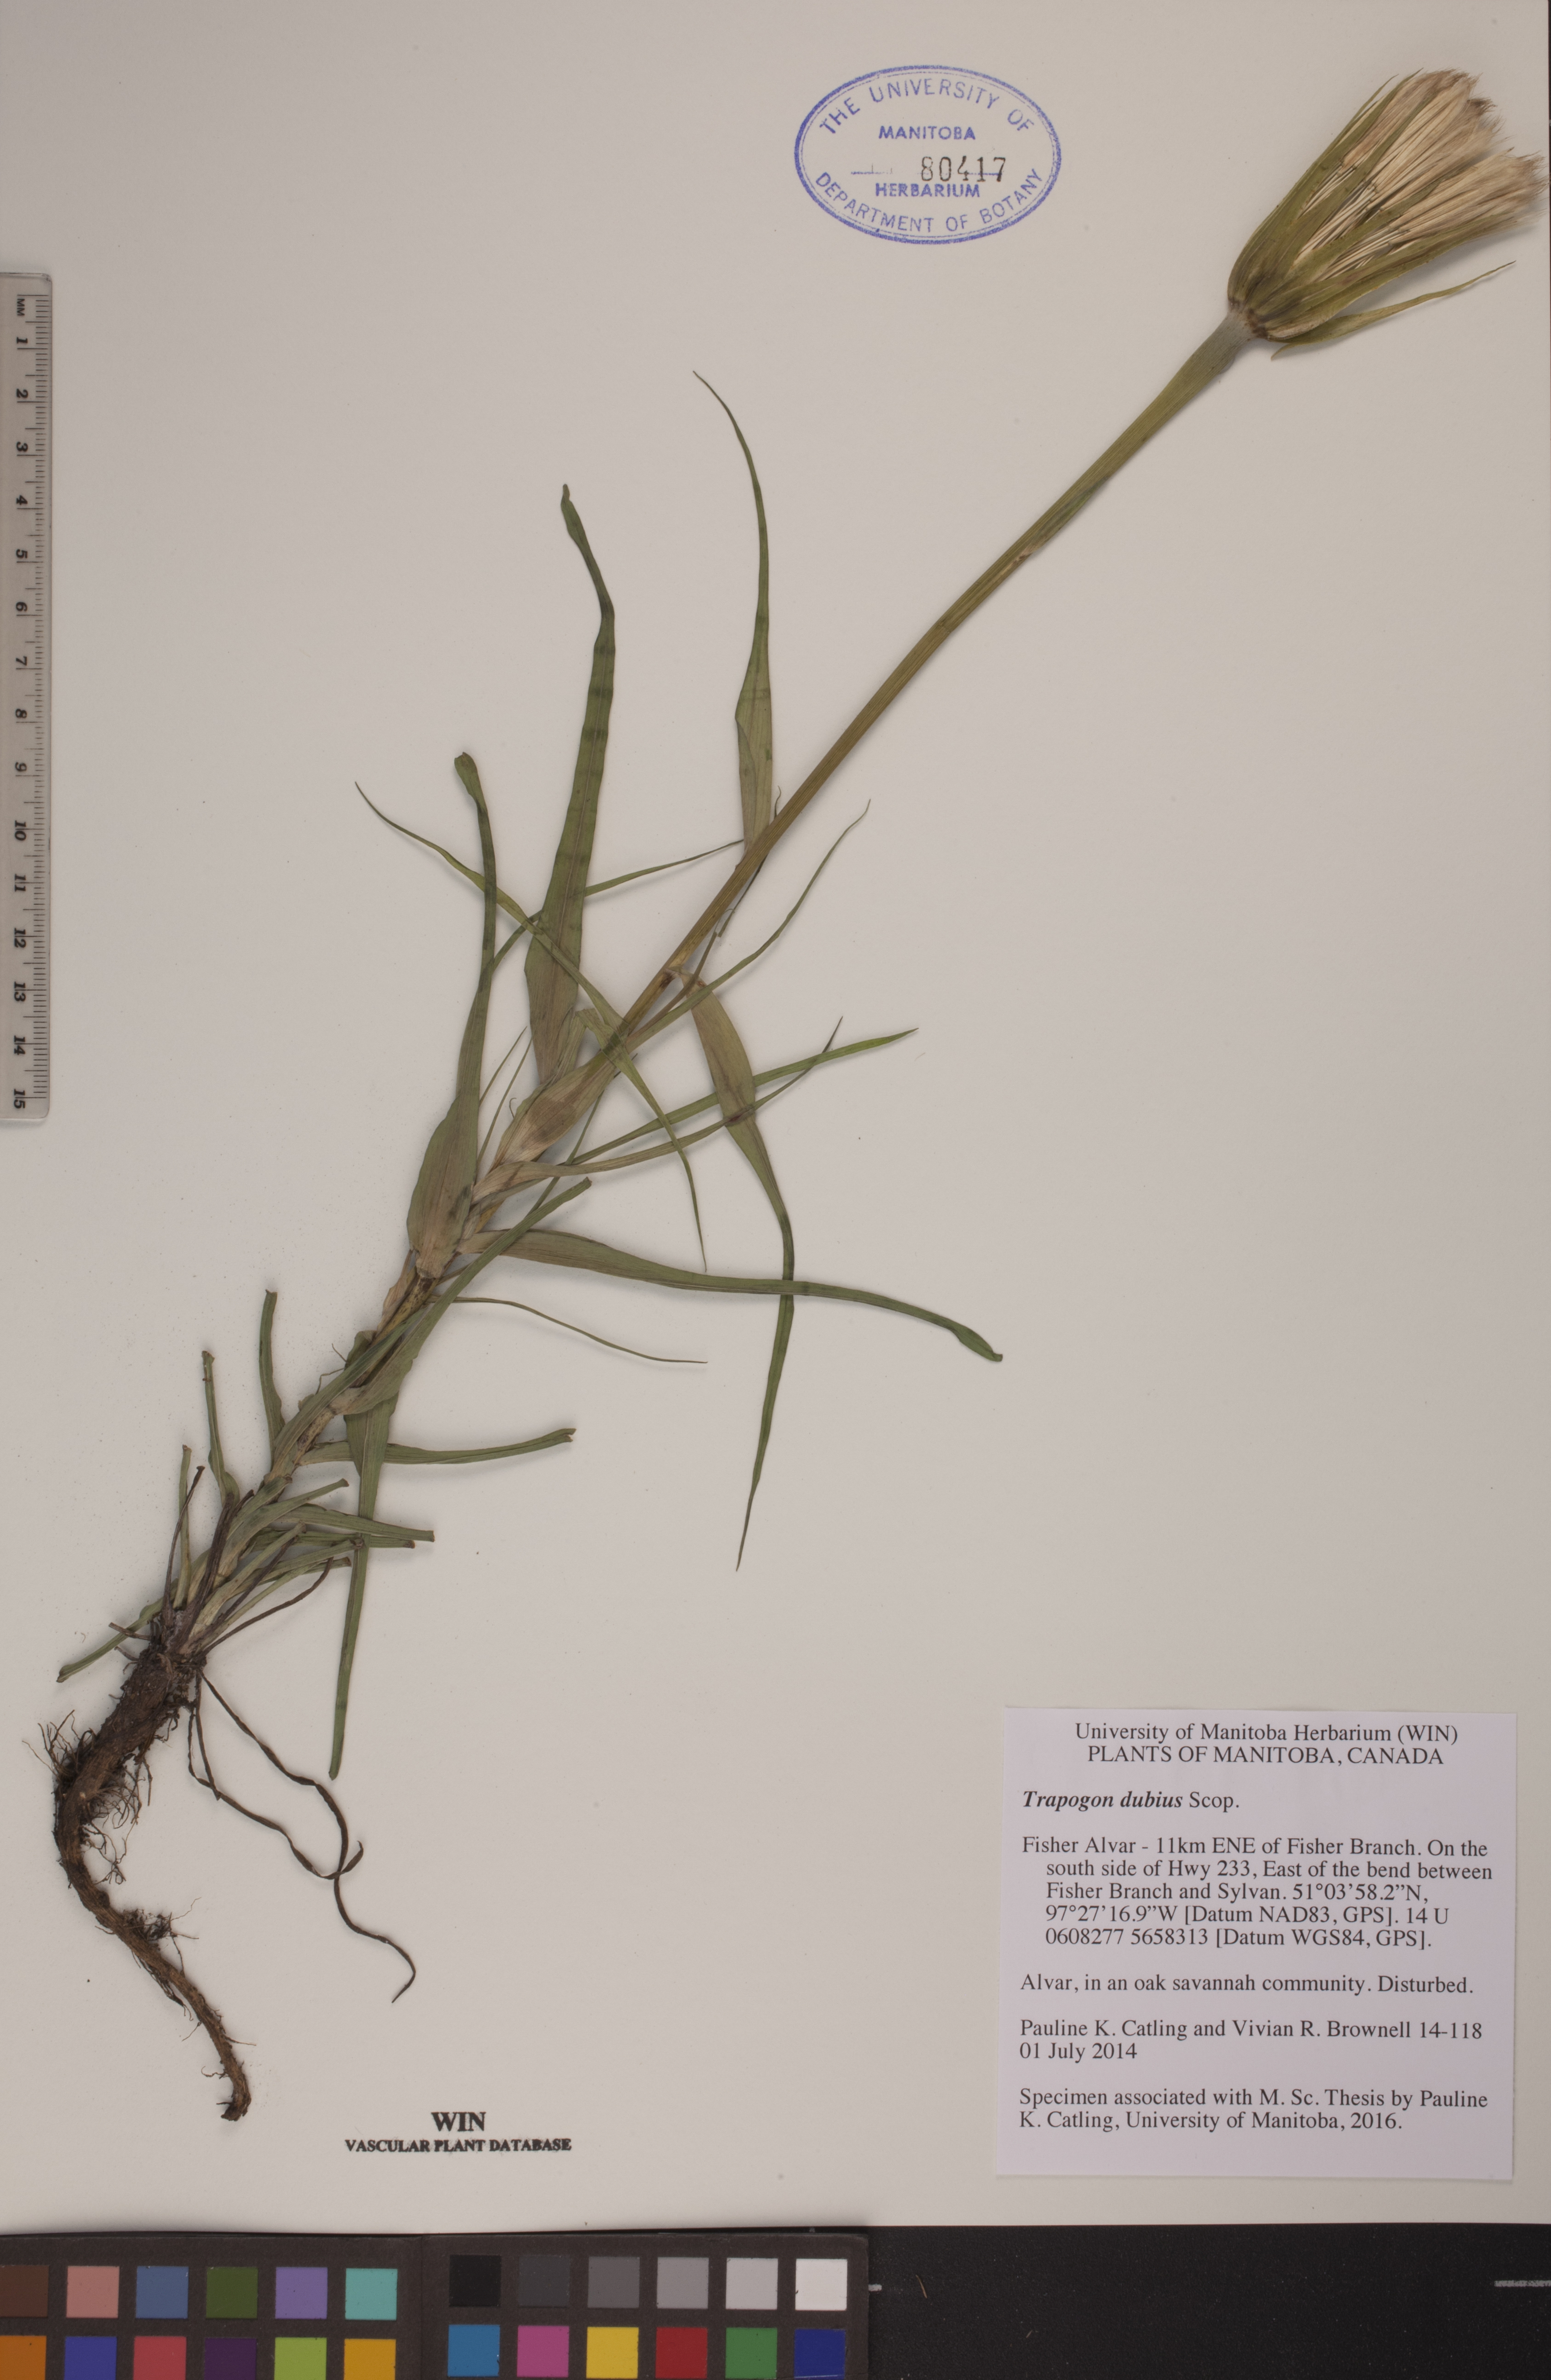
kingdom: Plantae
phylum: Tracheophyta
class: Magnoliopsida
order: Asterales
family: Asteraceae
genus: Tragopogon
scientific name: Tragopogon dubius
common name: Yellow salsify
